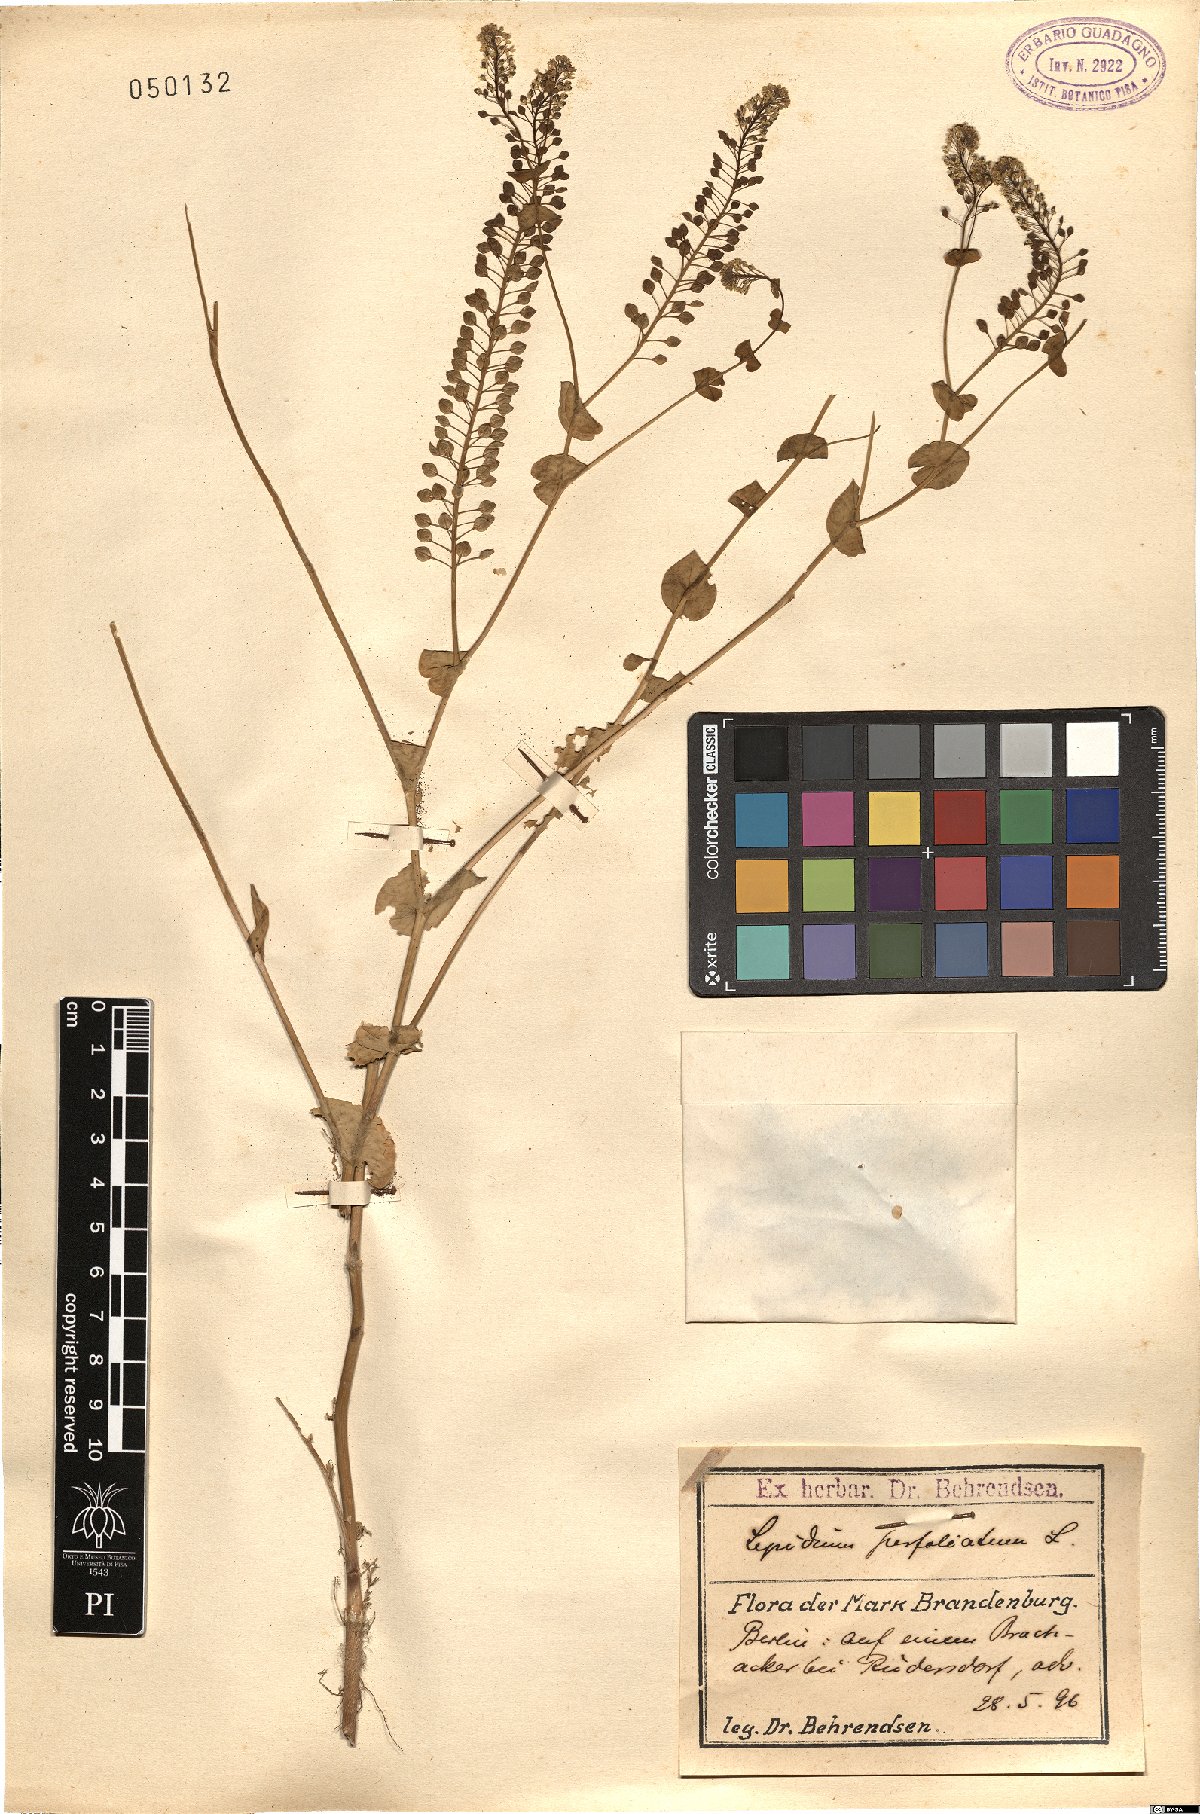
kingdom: Plantae
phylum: Tracheophyta
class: Magnoliopsida
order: Brassicales
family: Brassicaceae
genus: Lepidium
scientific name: Lepidium perfoliatum
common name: Perfoliate pepperwort
